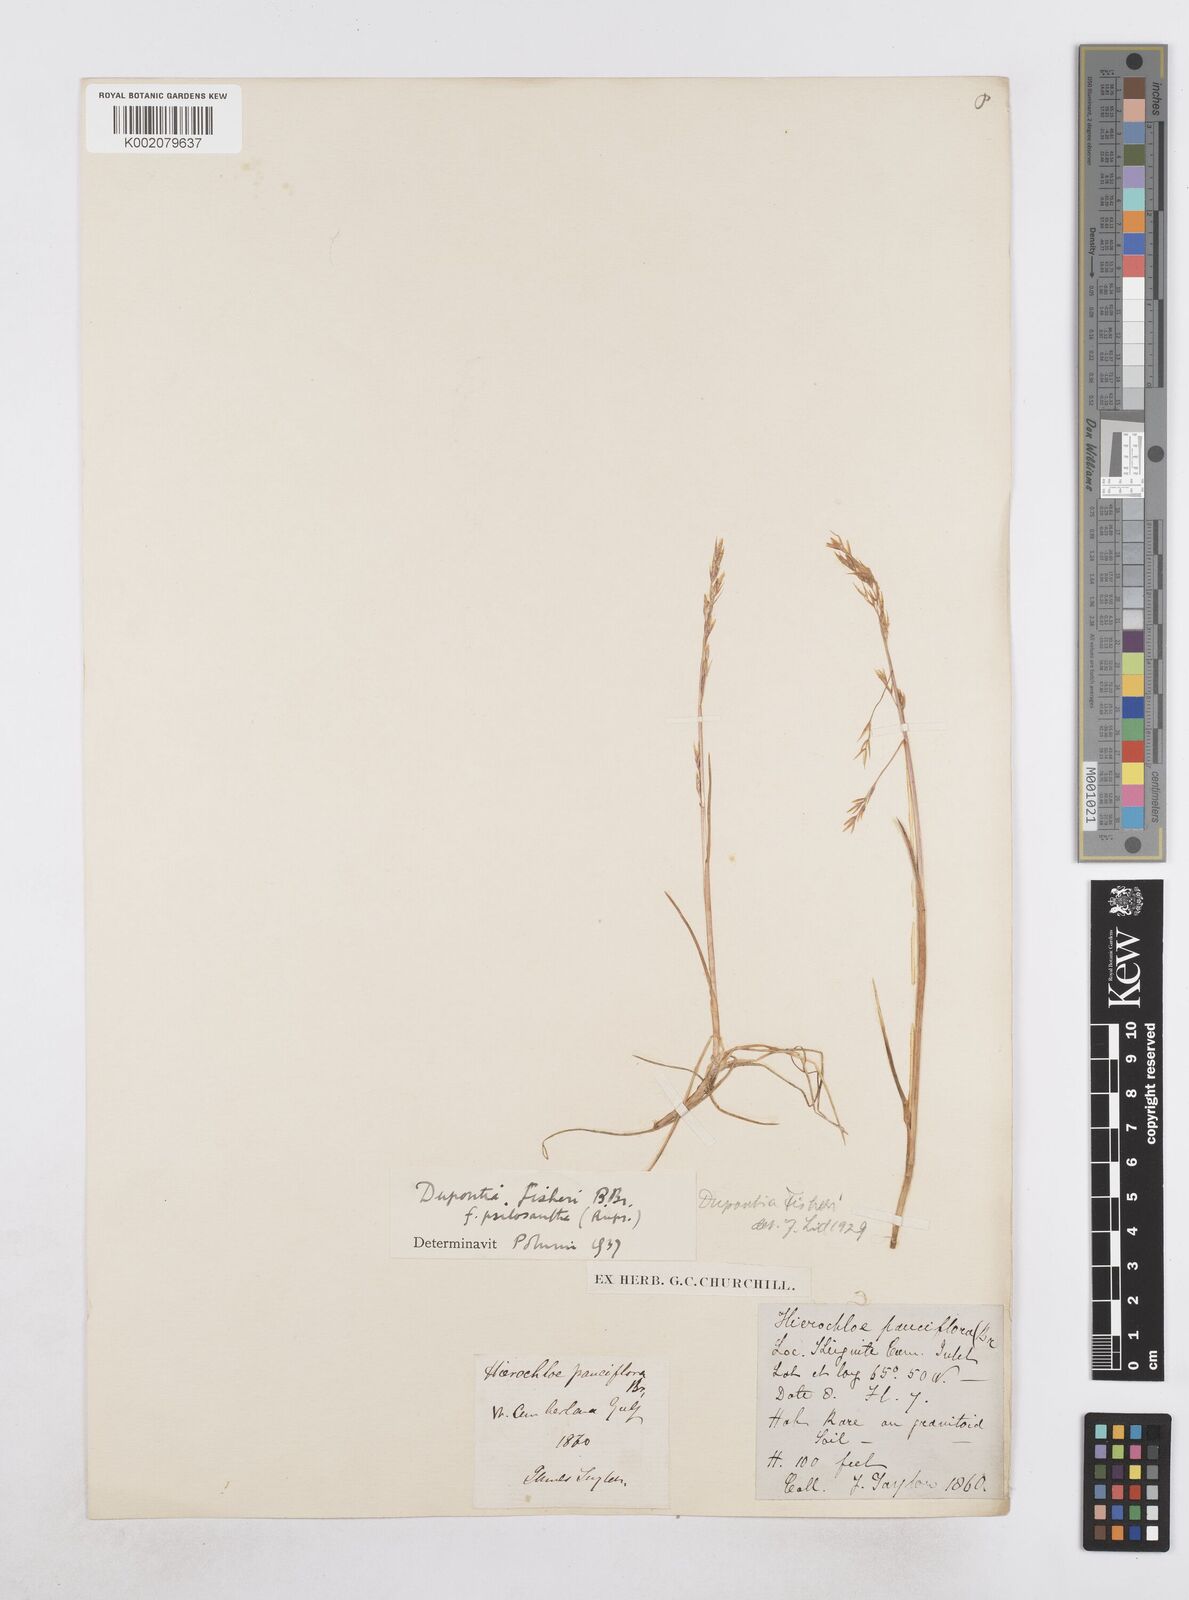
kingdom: Plantae
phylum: Tracheophyta
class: Liliopsida
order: Poales
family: Poaceae
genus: Dupontia
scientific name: Dupontia fisheri
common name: Tundra grass
